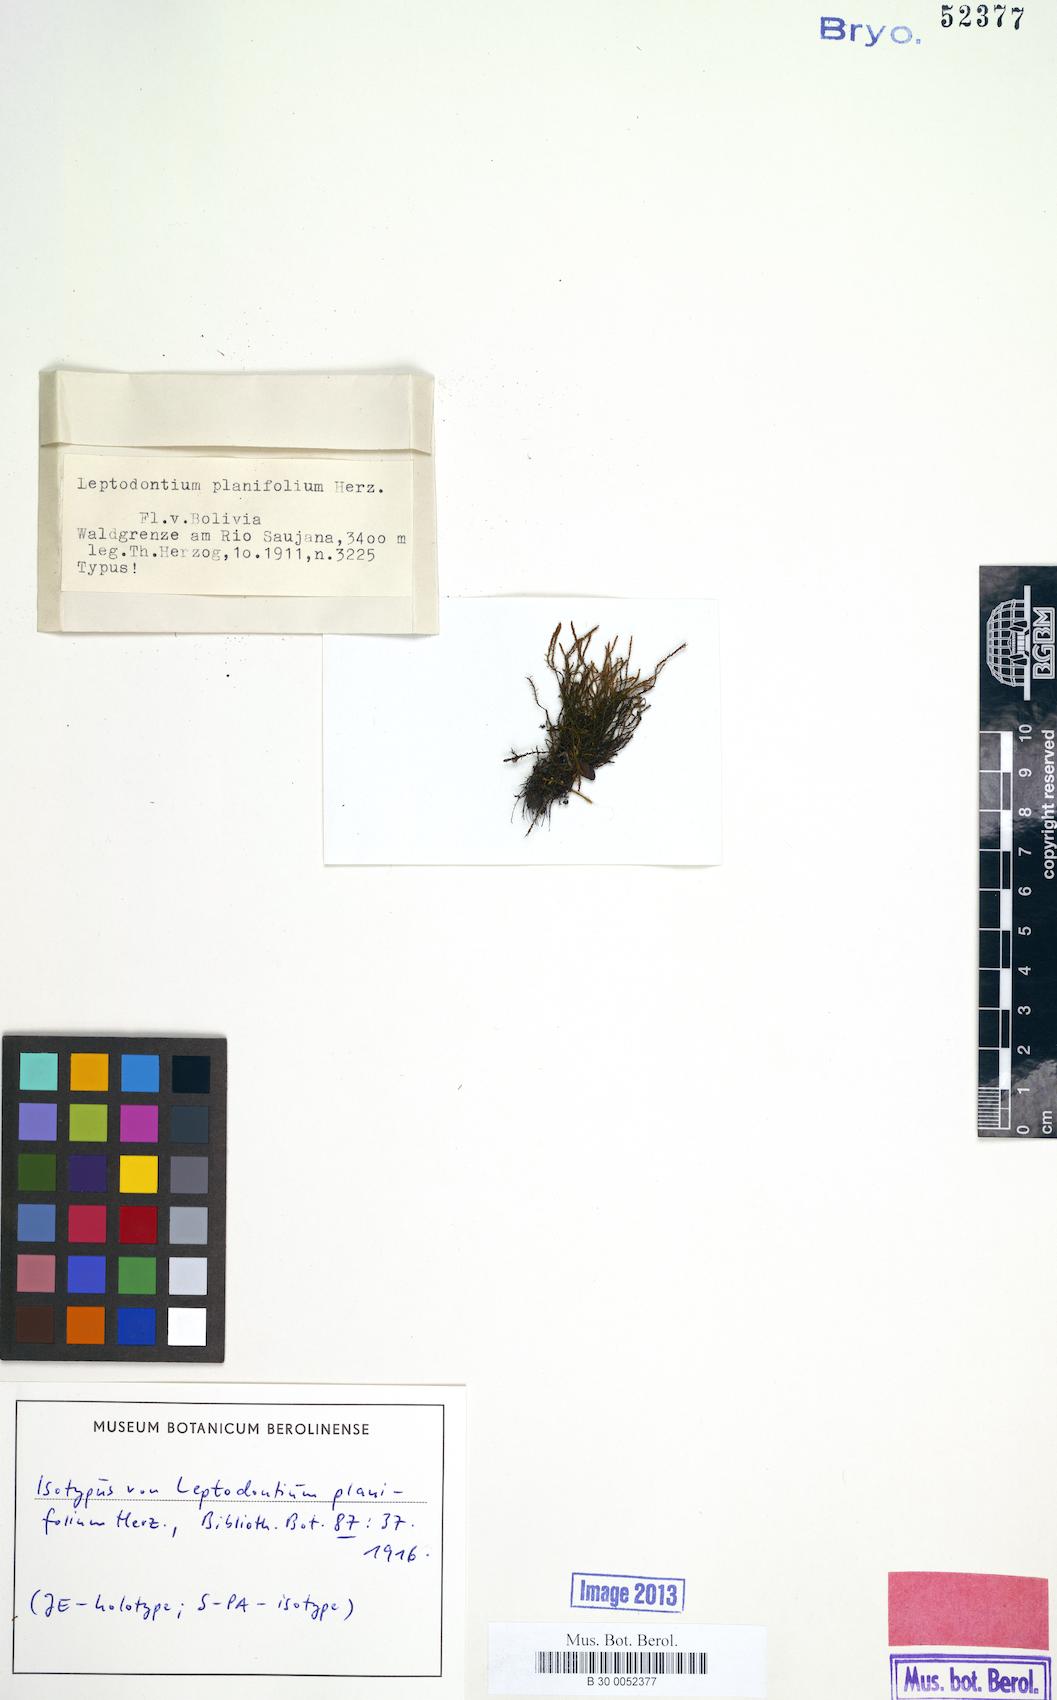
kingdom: Plantae
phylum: Bryophyta
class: Bryopsida
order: Pottiales
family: Pottiaceae
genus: Leptodontium
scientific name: Leptodontium filicola
